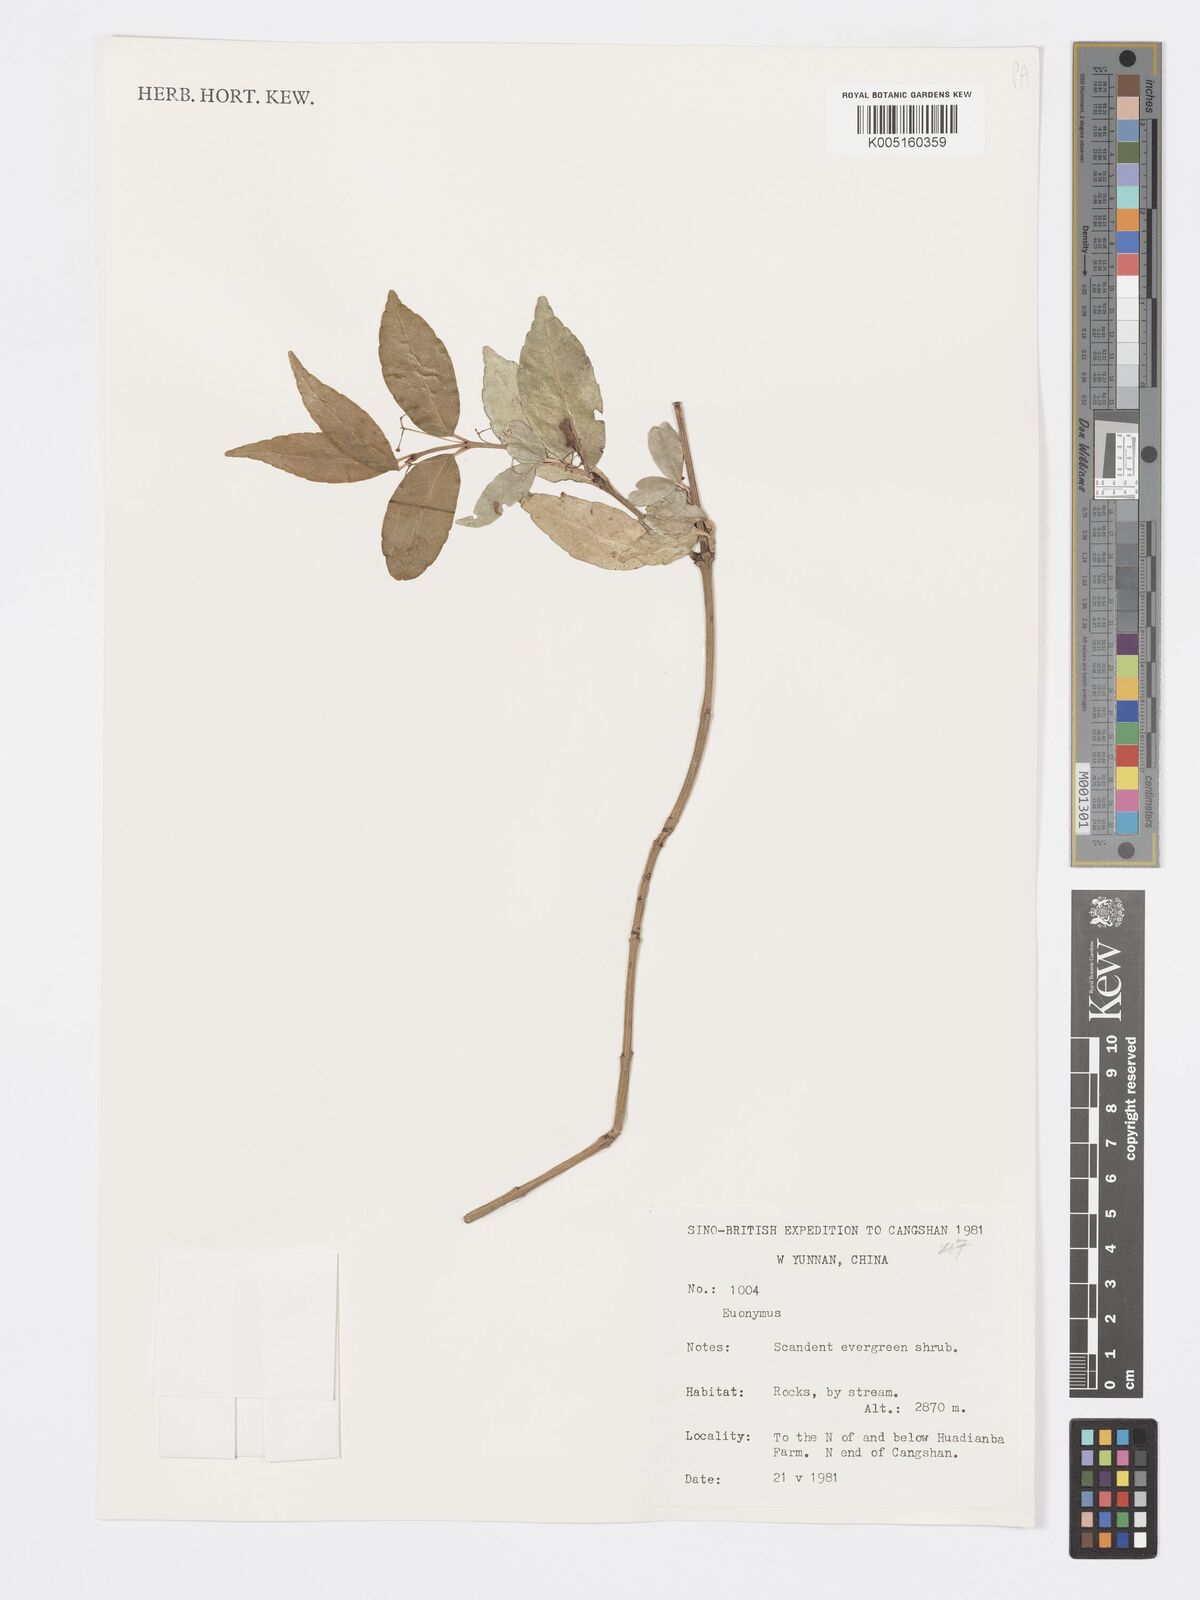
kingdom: Plantae
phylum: Tracheophyta
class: Magnoliopsida
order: Celastrales
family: Celastraceae
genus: Euonymus
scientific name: Euonymus maackii
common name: Hamilton's spindletree
